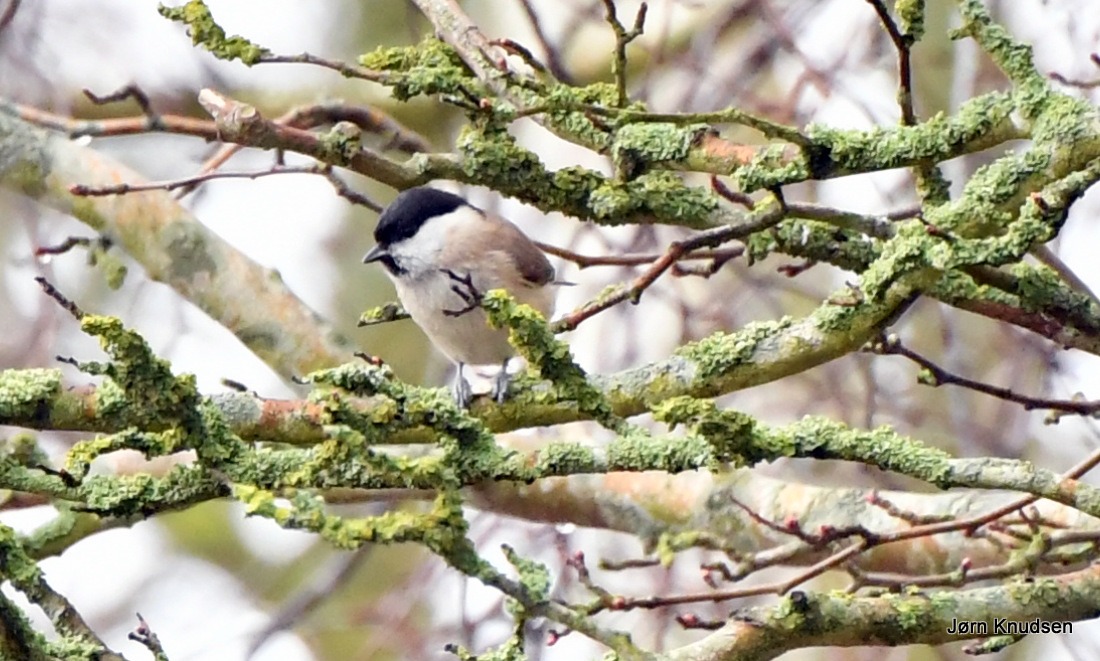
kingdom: Animalia
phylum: Chordata
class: Aves
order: Passeriformes
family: Paridae
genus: Poecile
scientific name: Poecile palustris
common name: Sumpmejse
